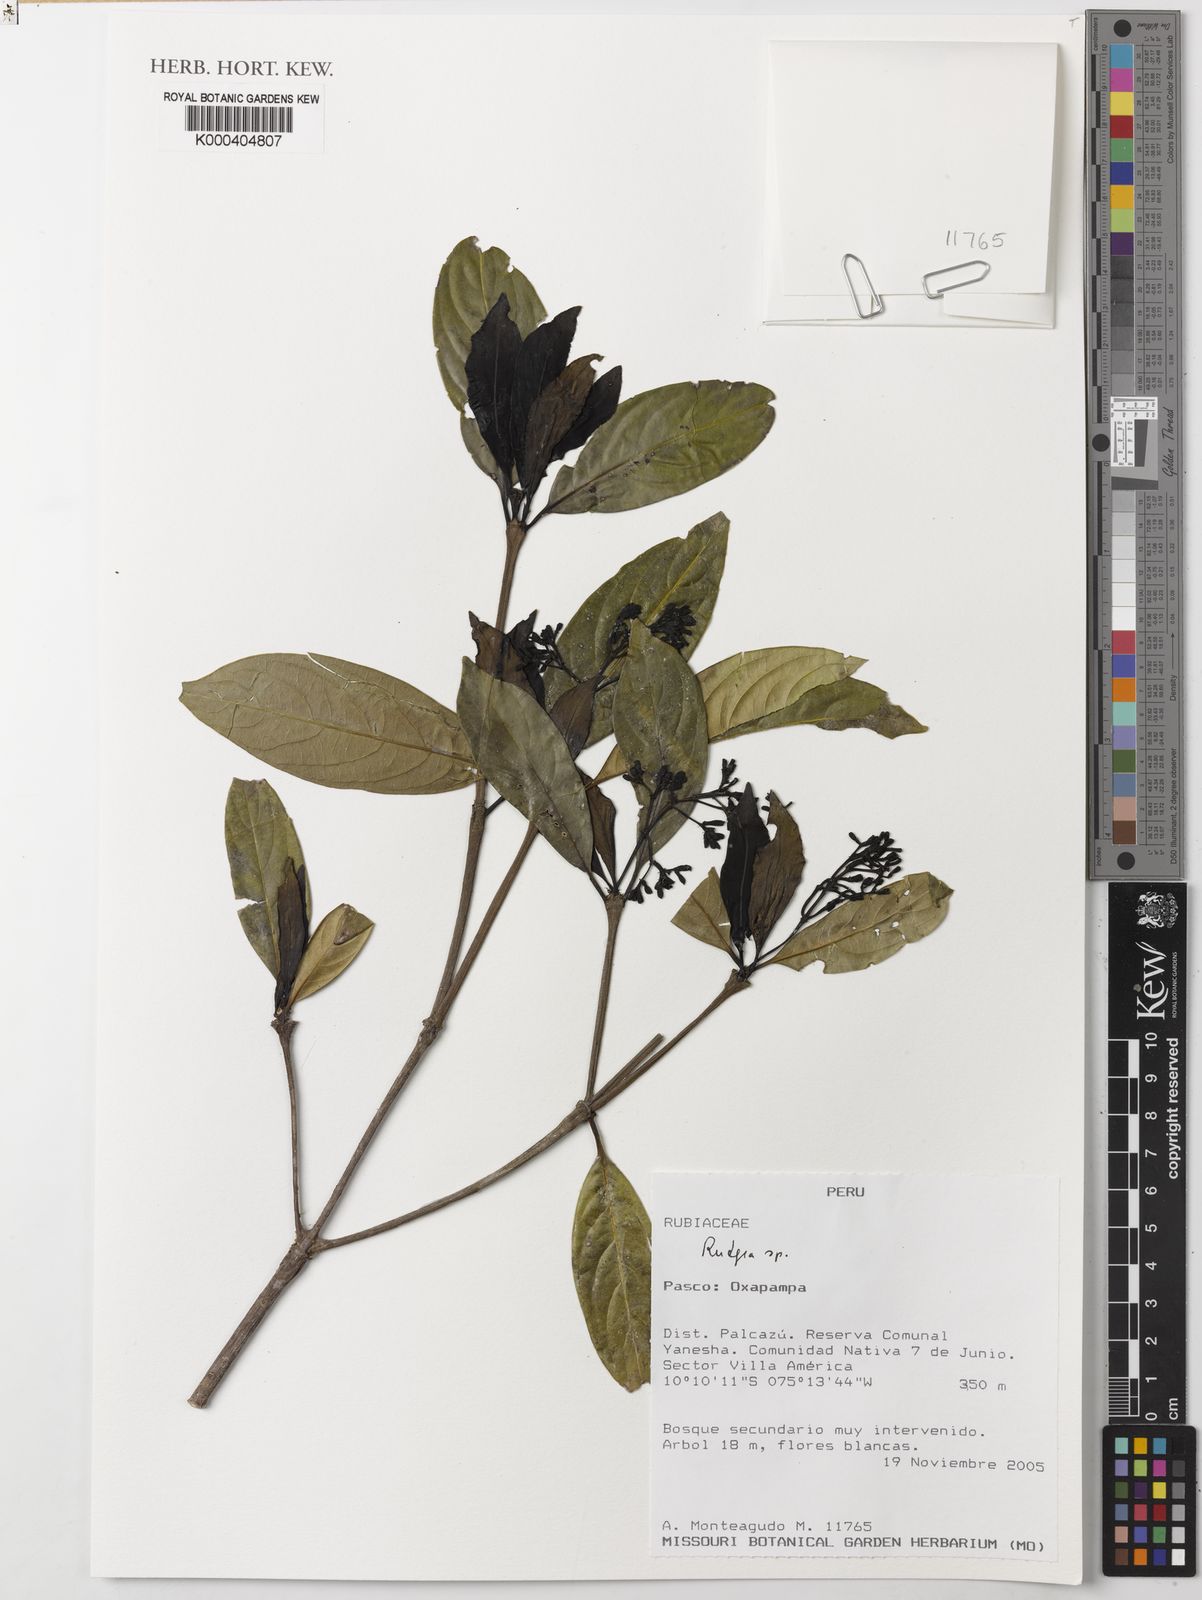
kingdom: Plantae
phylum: Tracheophyta
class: Magnoliopsida
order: Gentianales
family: Rubiaceae
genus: Rudgea
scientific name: Rudgea
